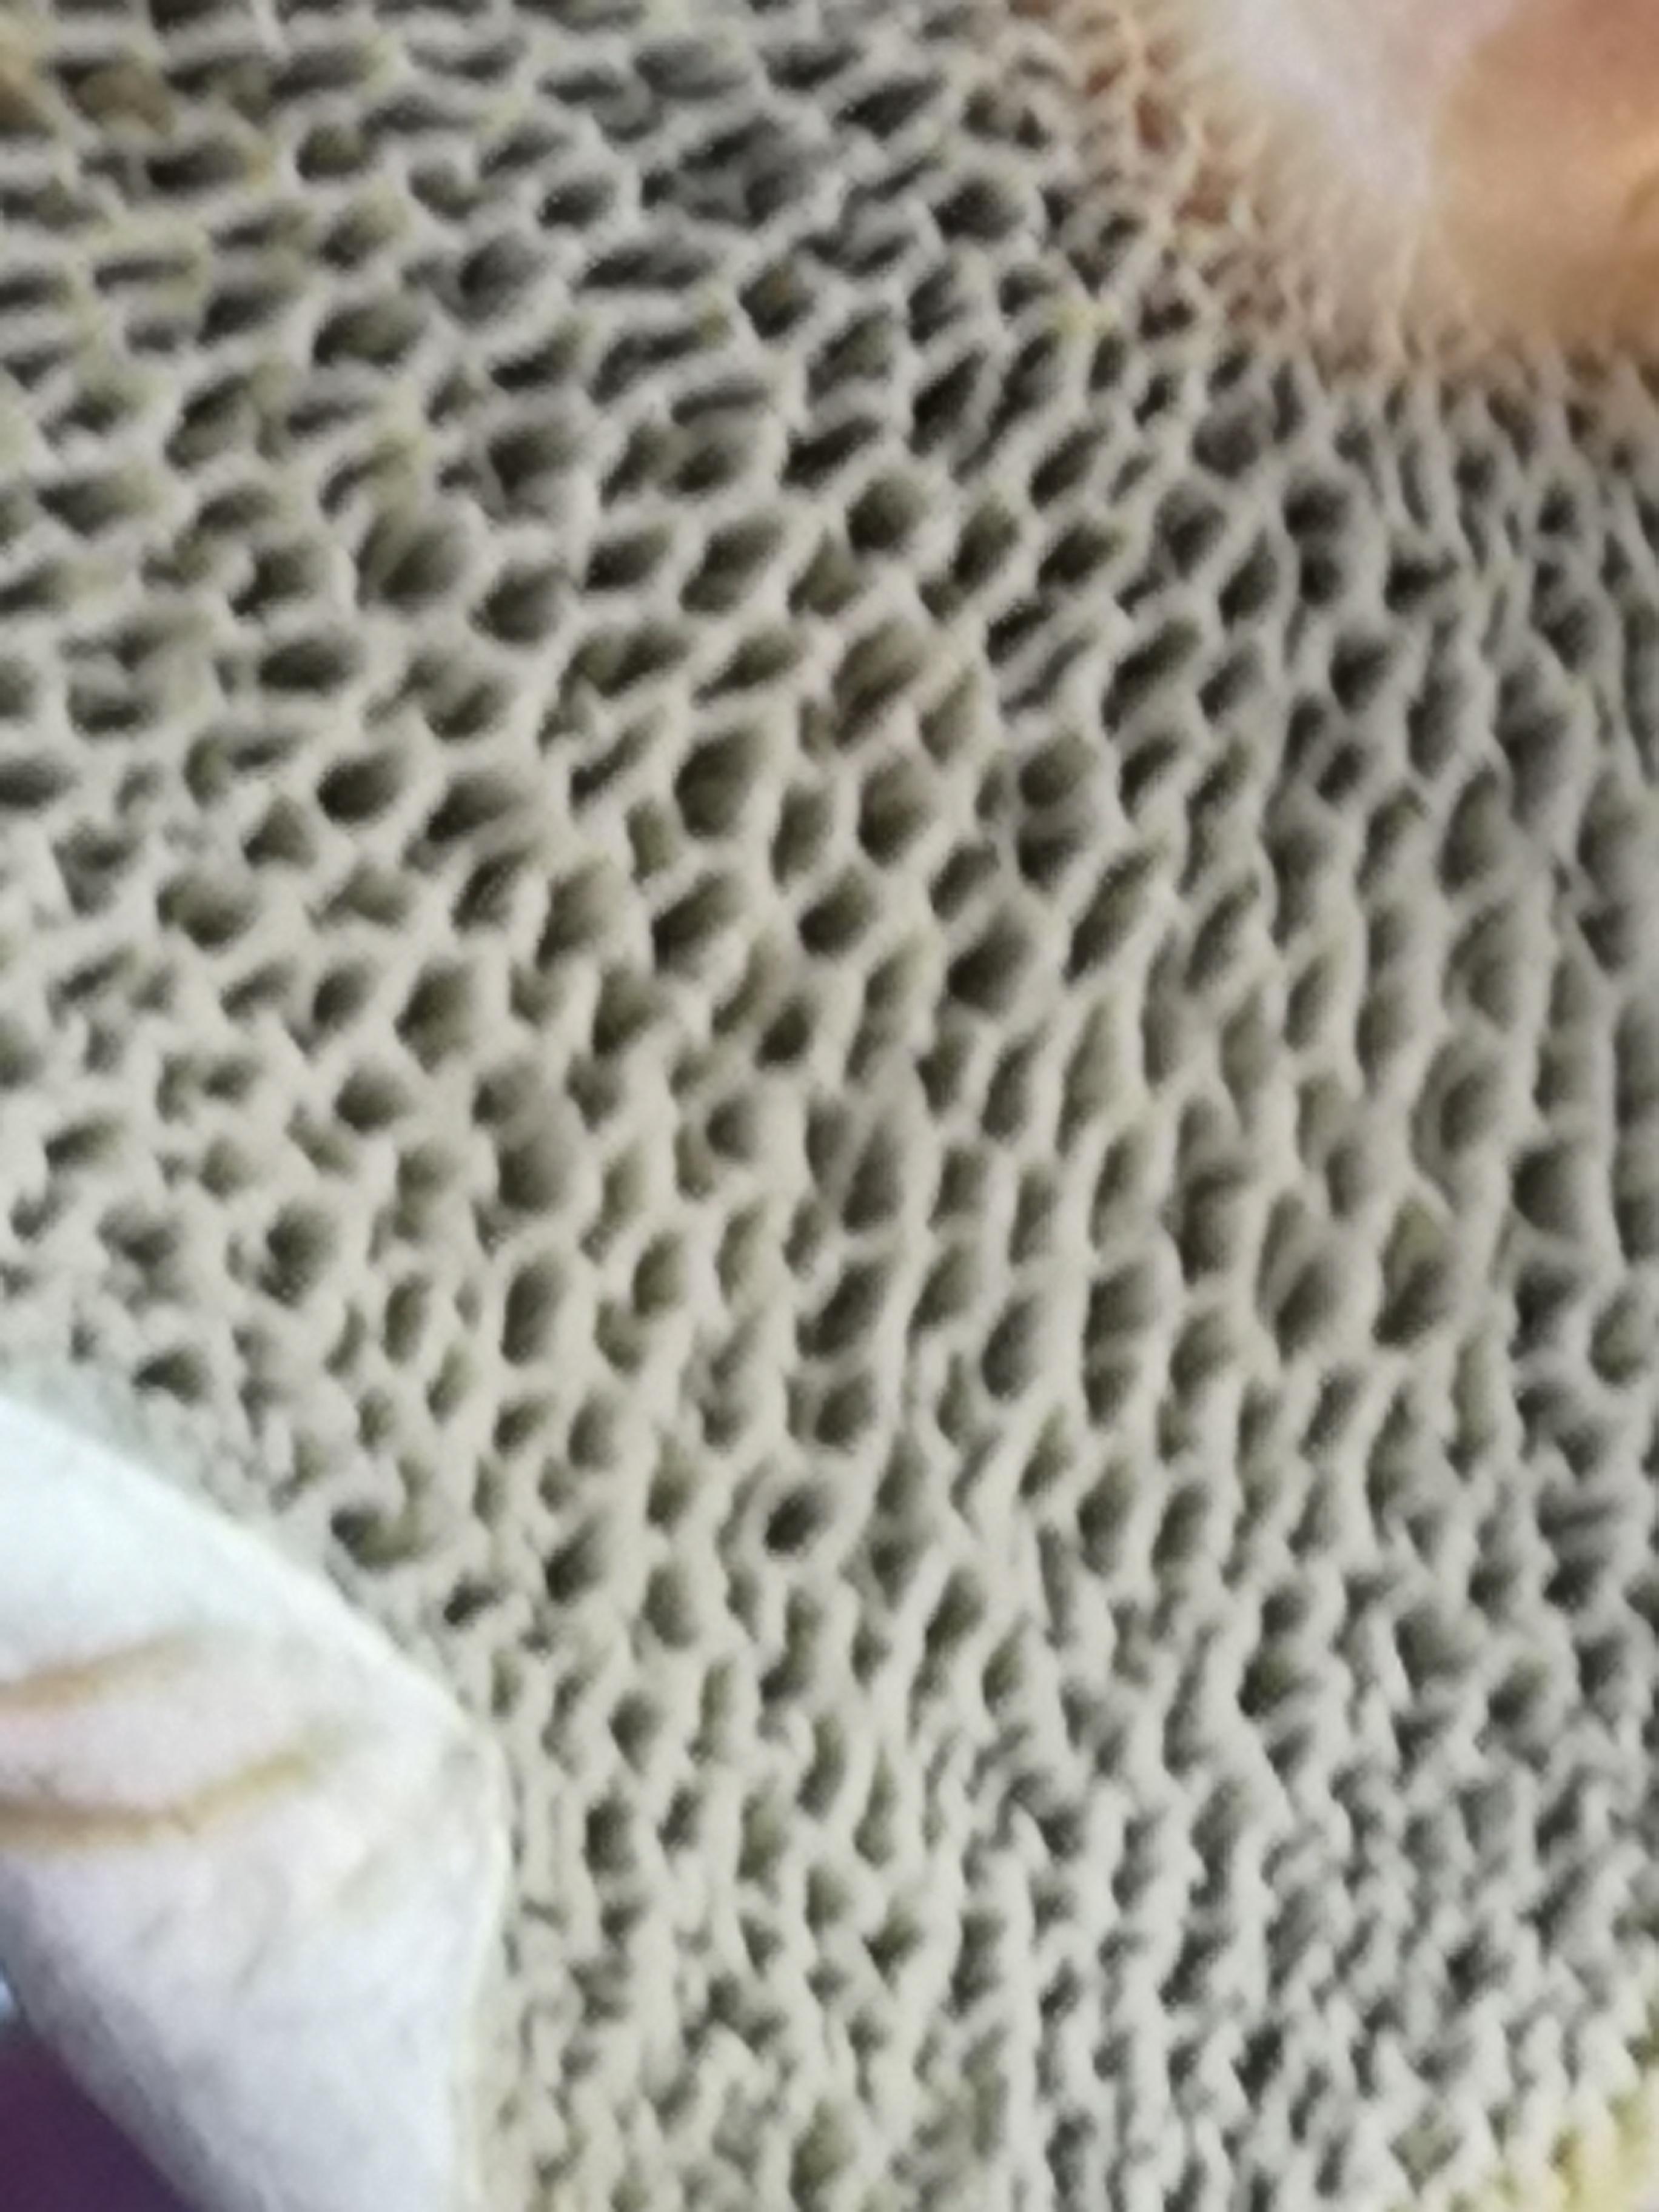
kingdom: Fungi
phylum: Basidiomycota
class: Agaricomycetes
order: Boletales
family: Suillaceae
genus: Suillus
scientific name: Suillus bovinus
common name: grovporet slimrørhat
